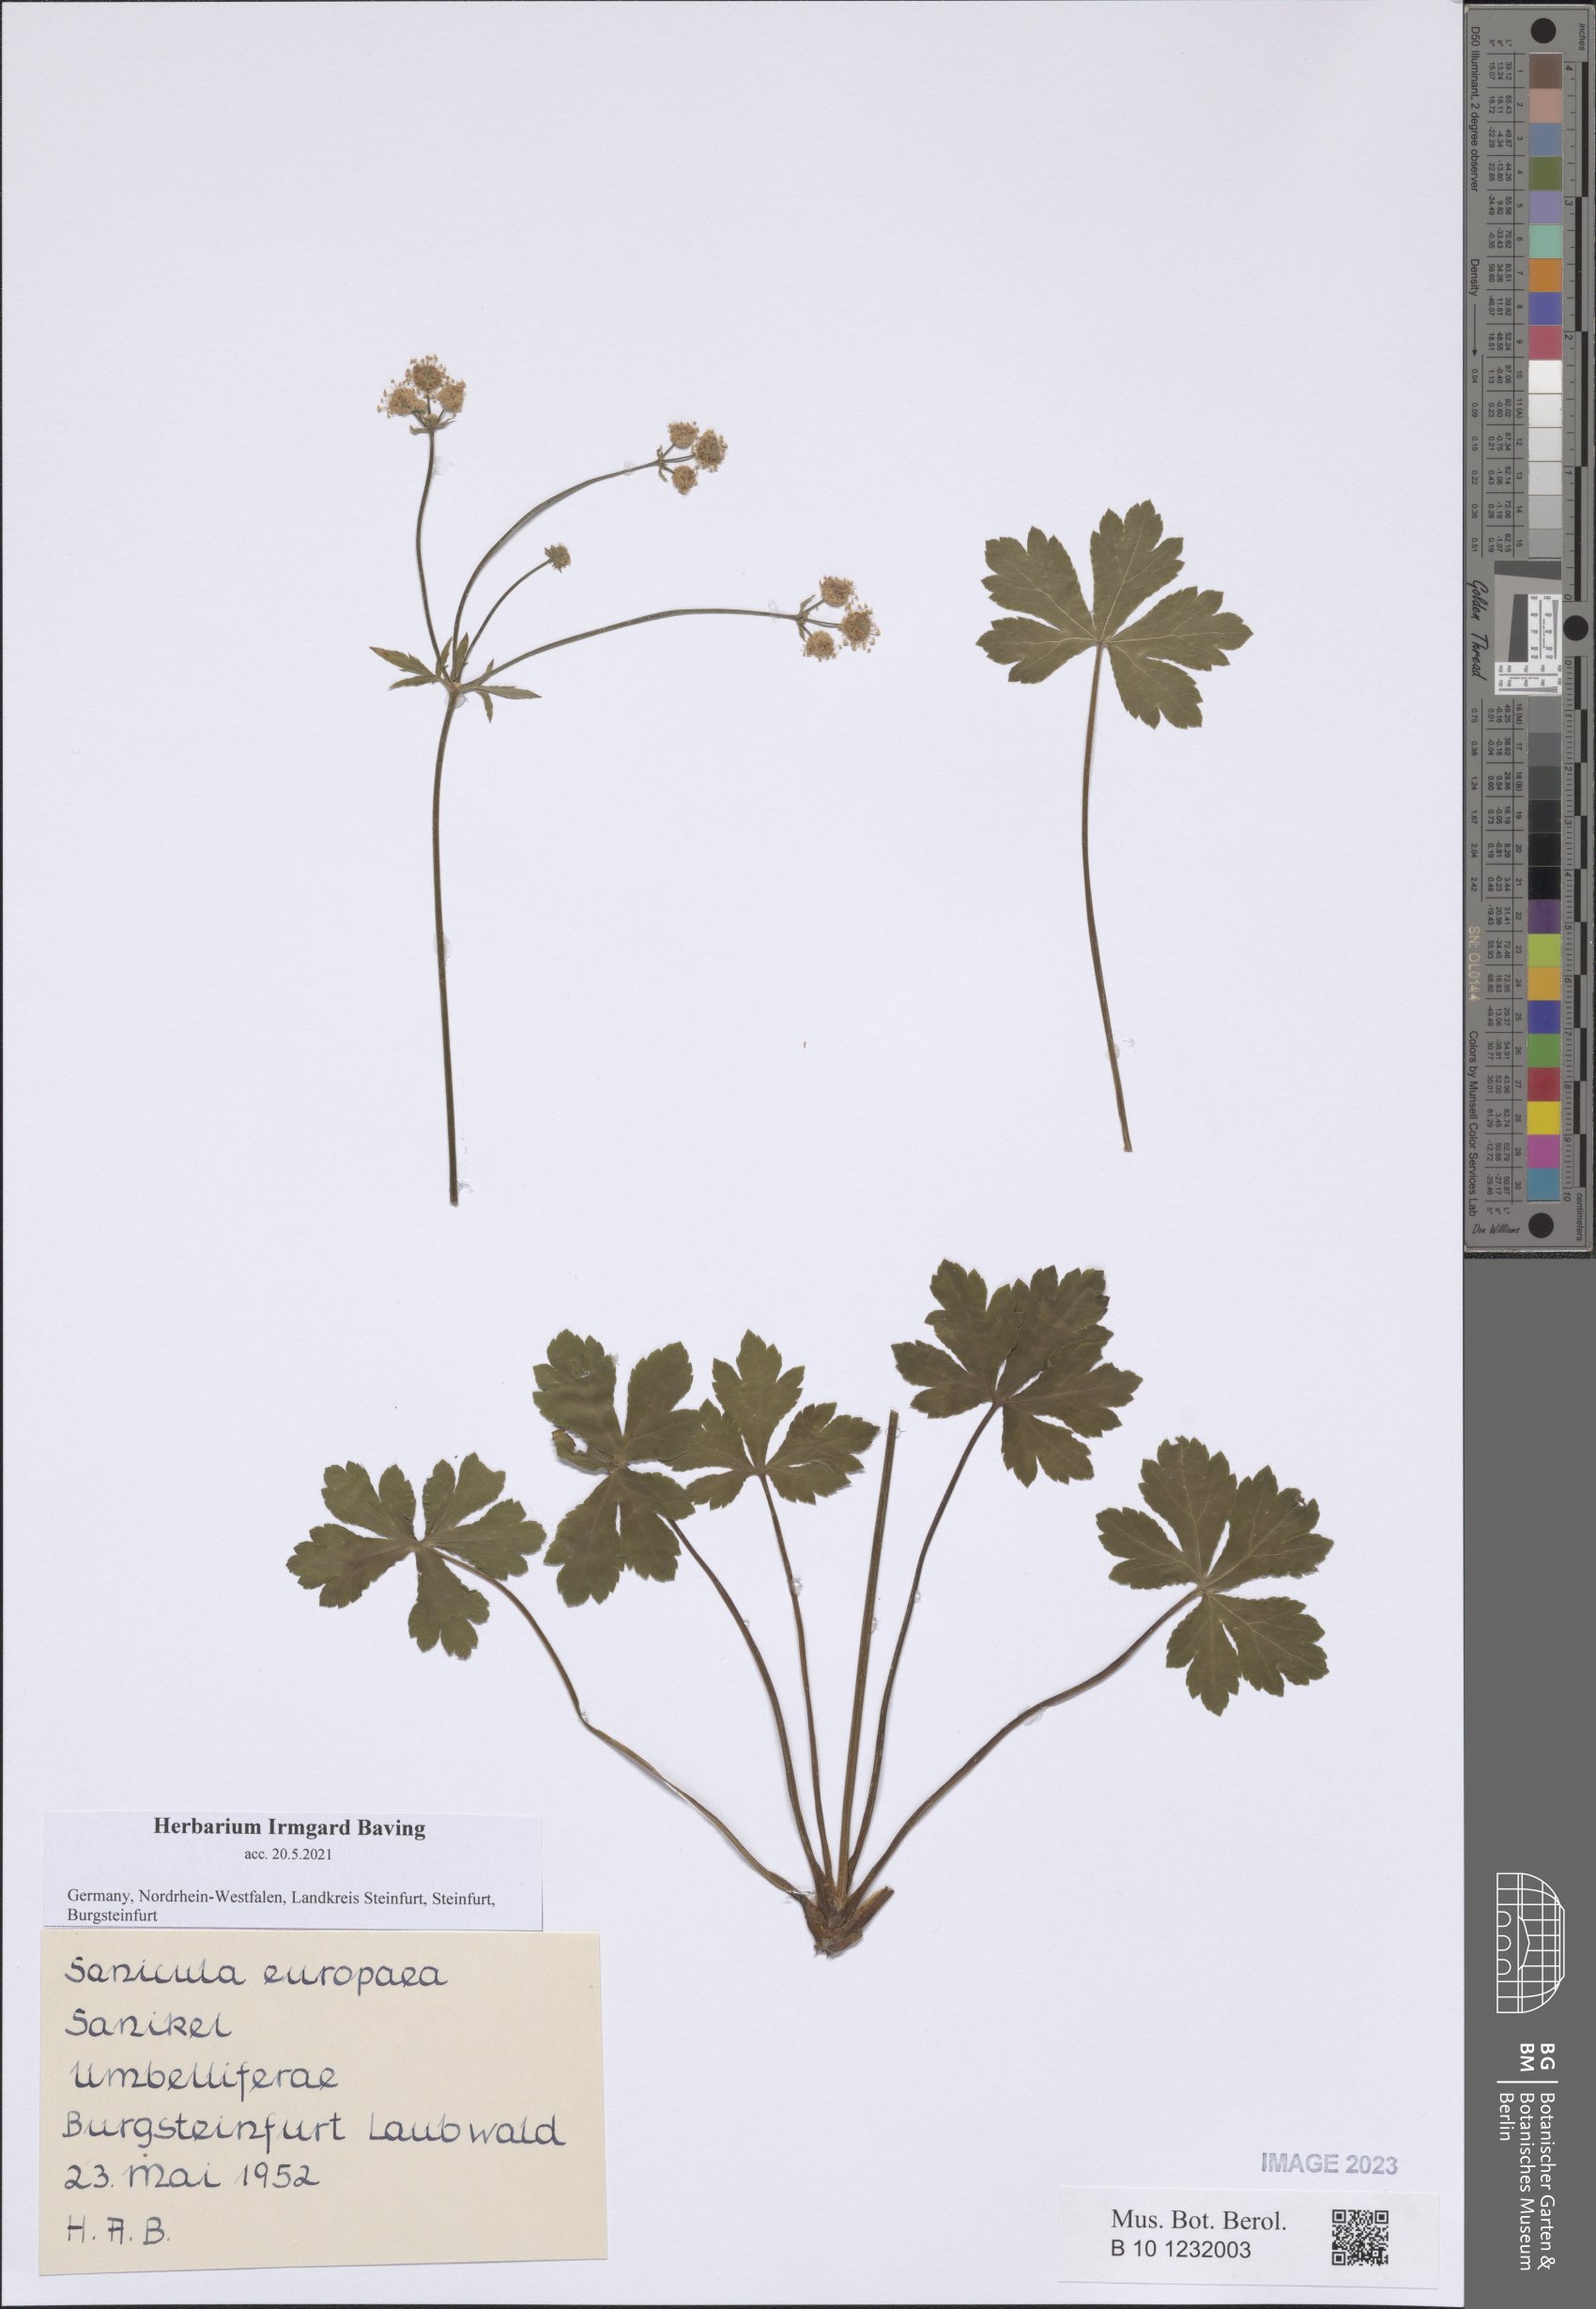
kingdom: Plantae
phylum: Tracheophyta
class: Magnoliopsida
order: Apiales
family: Apiaceae
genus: Sanicula
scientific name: Sanicula europaea
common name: Sanicle
